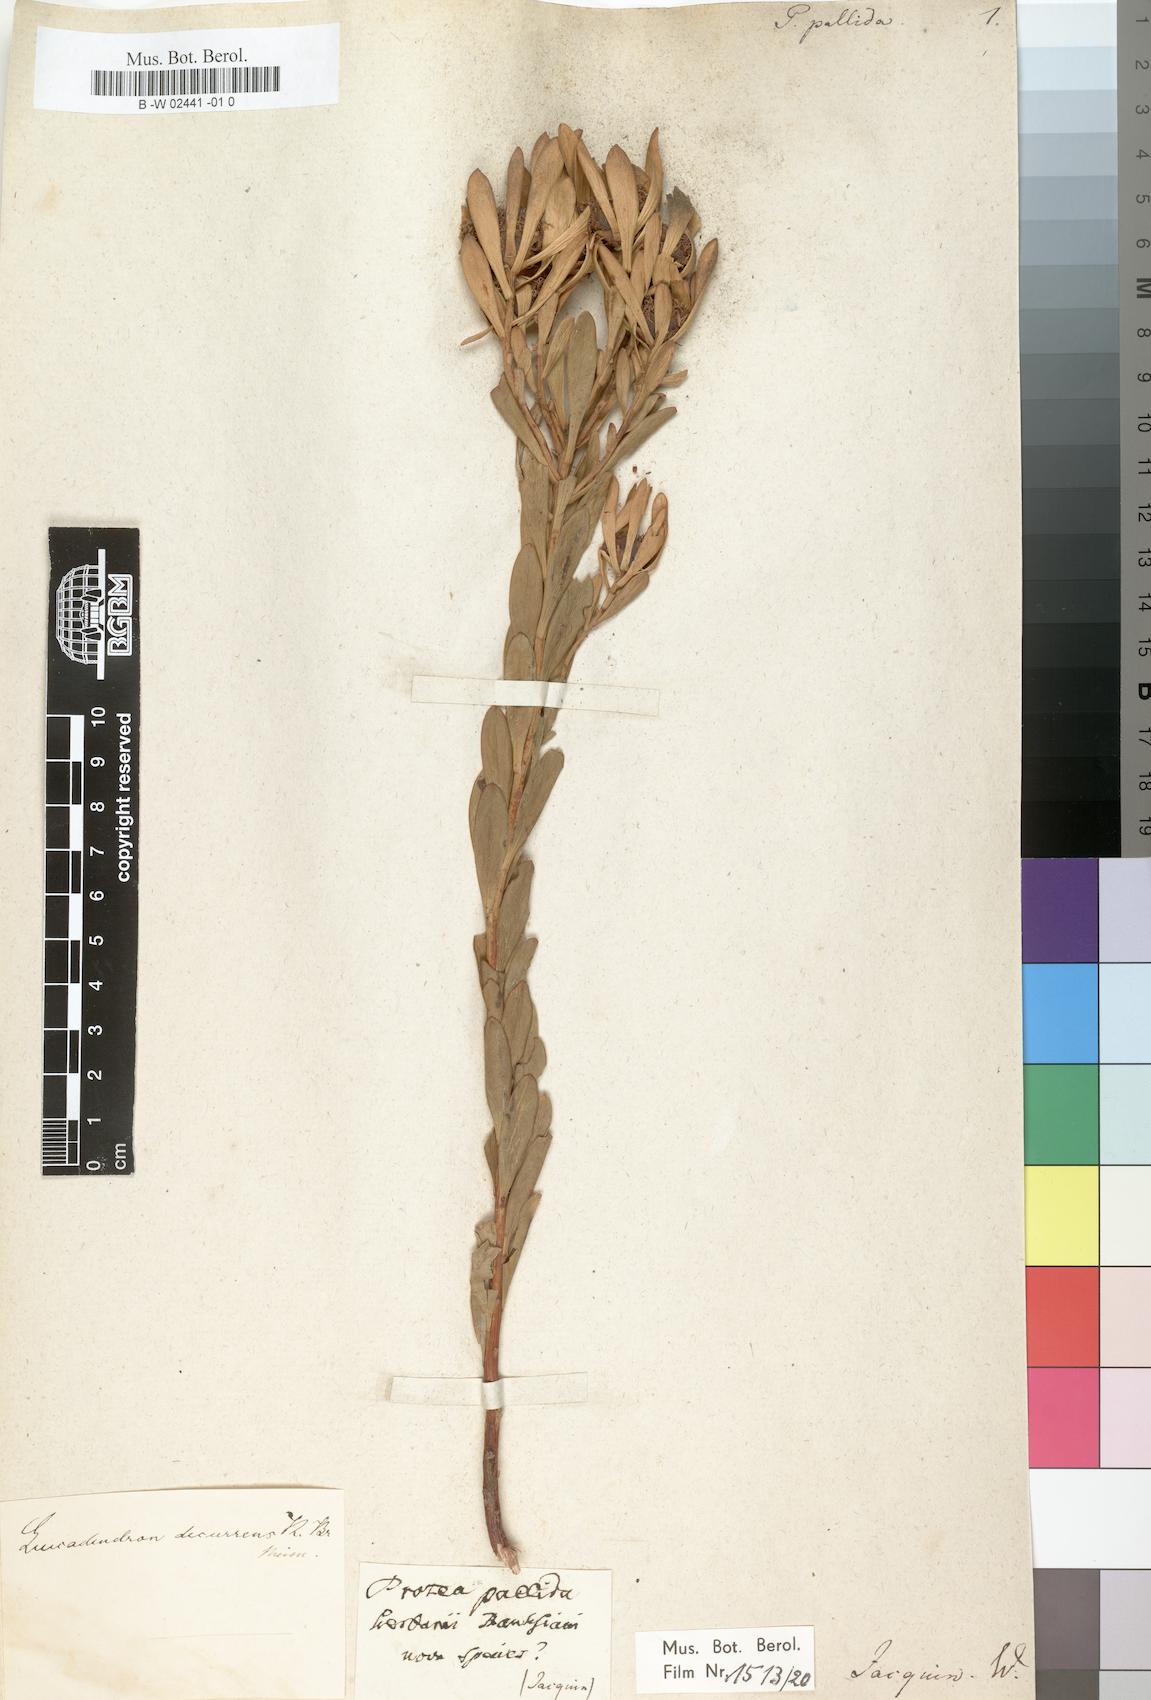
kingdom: Plantae
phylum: Tracheophyta
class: Magnoliopsida
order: Proteales
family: Proteaceae
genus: Leucadendron
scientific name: Leucadendron chamelaea
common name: Witsenberg conebush
